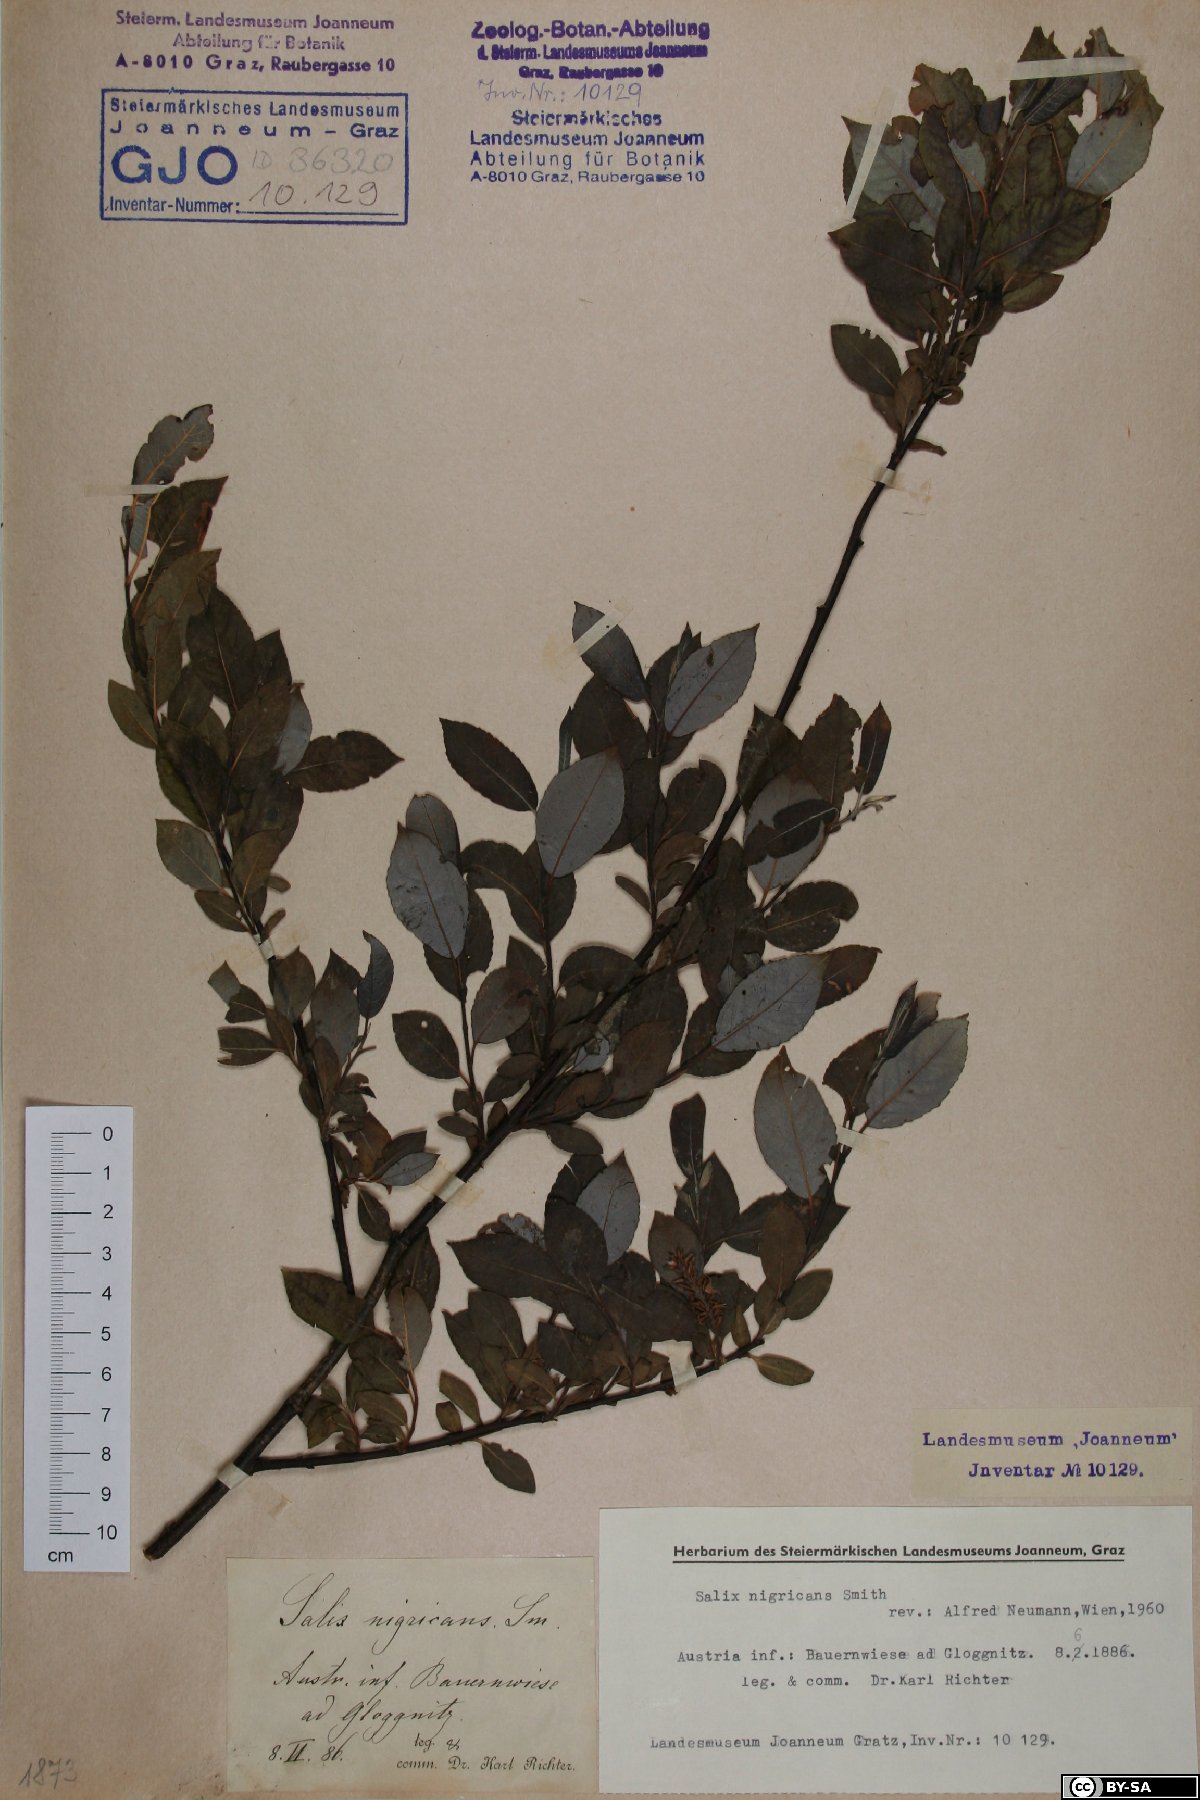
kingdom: Plantae
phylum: Tracheophyta
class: Magnoliopsida
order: Malpighiales
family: Salicaceae
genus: Salix
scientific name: Salix myrsinifolia
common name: Dark-leaved willow
